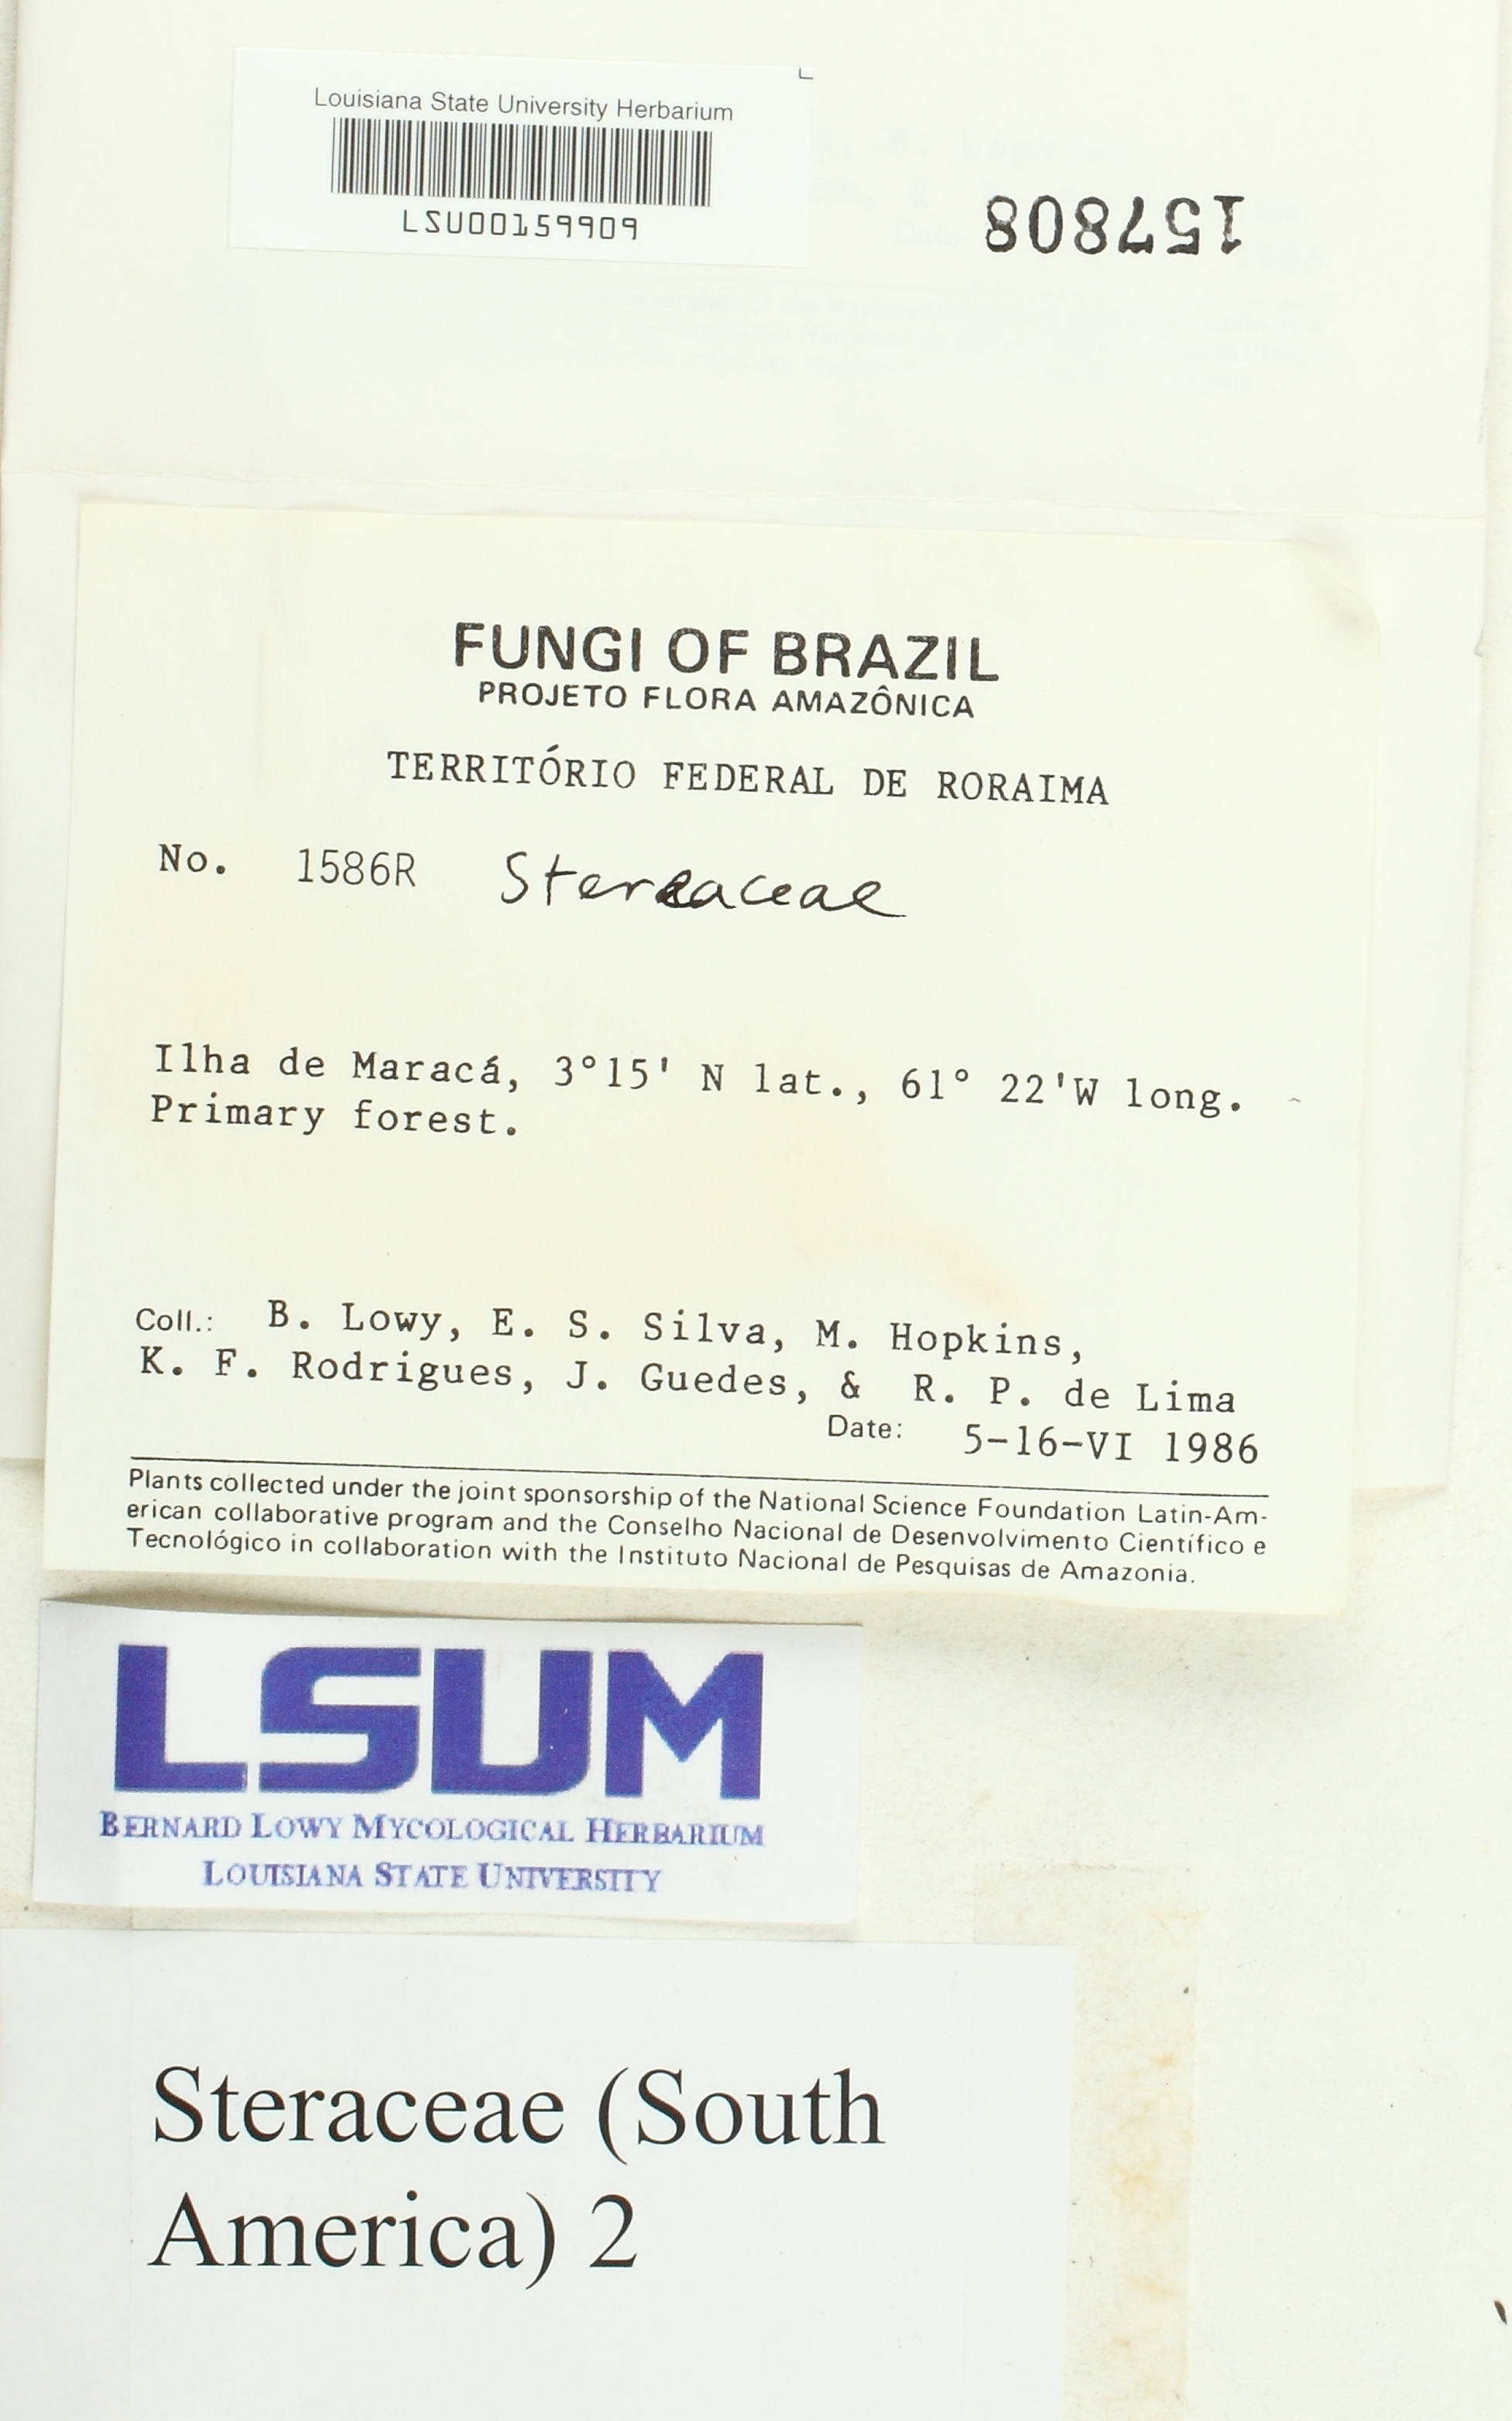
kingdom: Fungi
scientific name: Fungi
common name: Fungi
